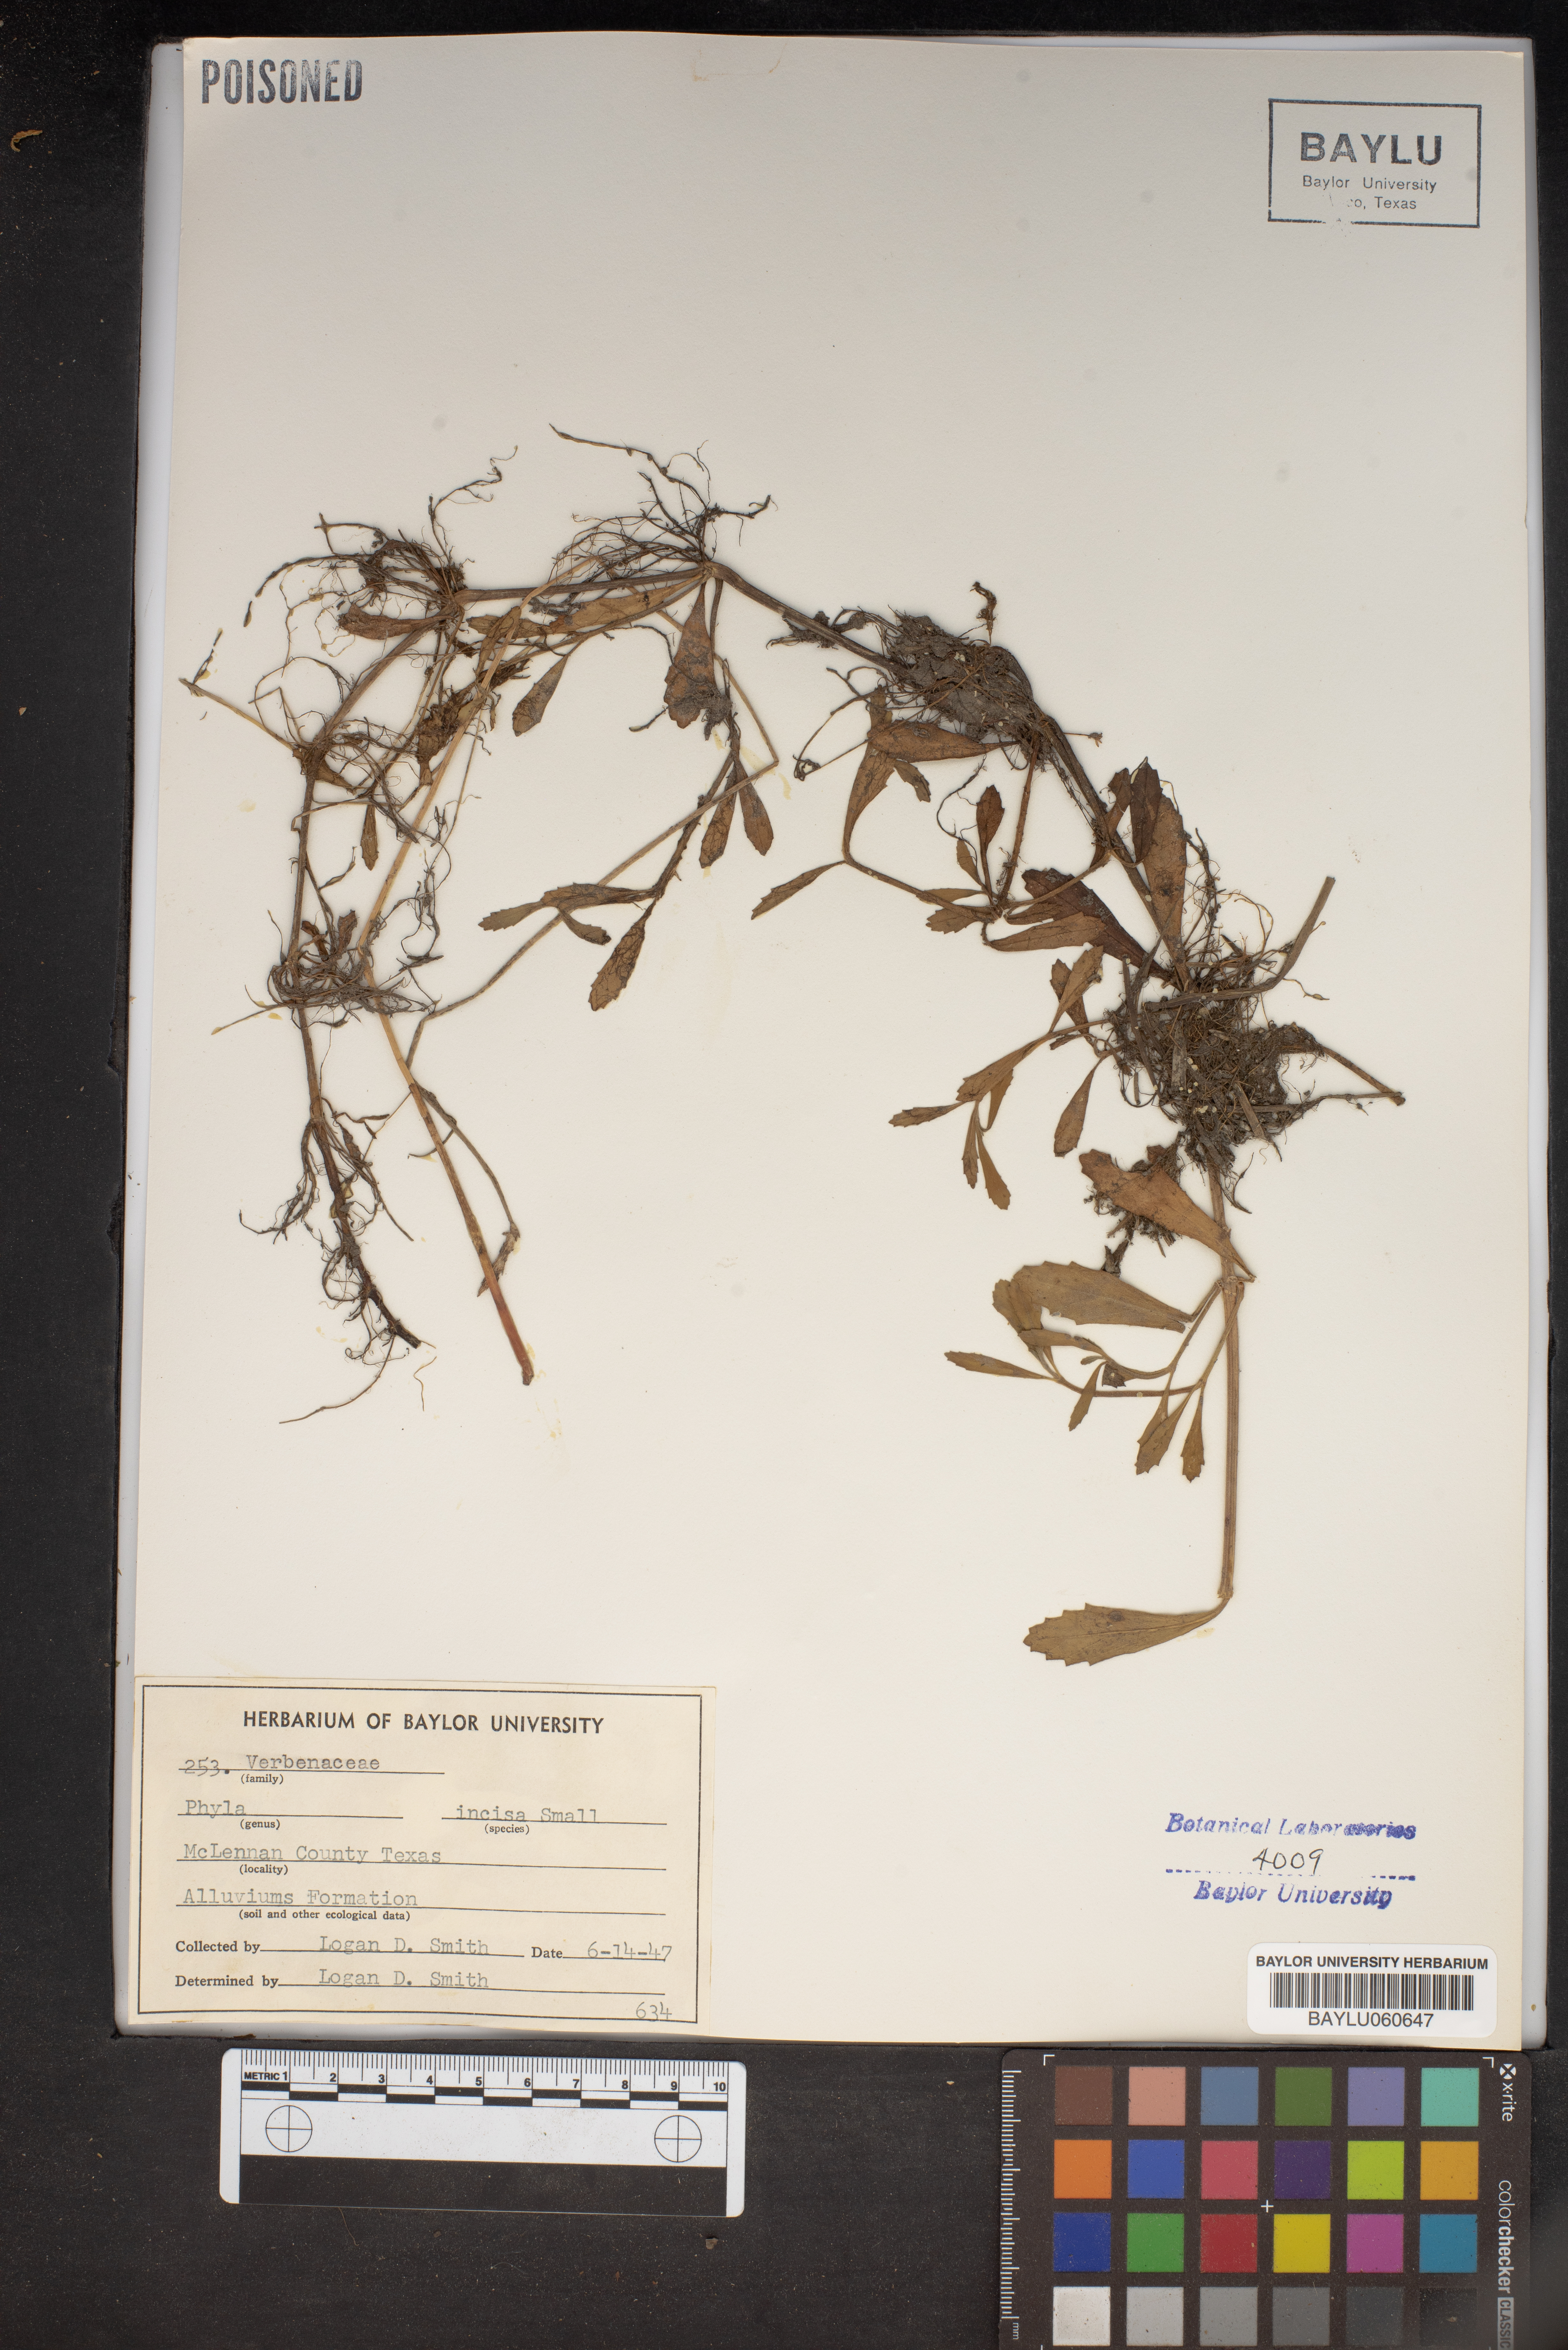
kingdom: Plantae
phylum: Tracheophyta
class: Magnoliopsida
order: Lamiales
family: Verbenaceae
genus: Phyla
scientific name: Phyla nodiflora
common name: Frogfruit
